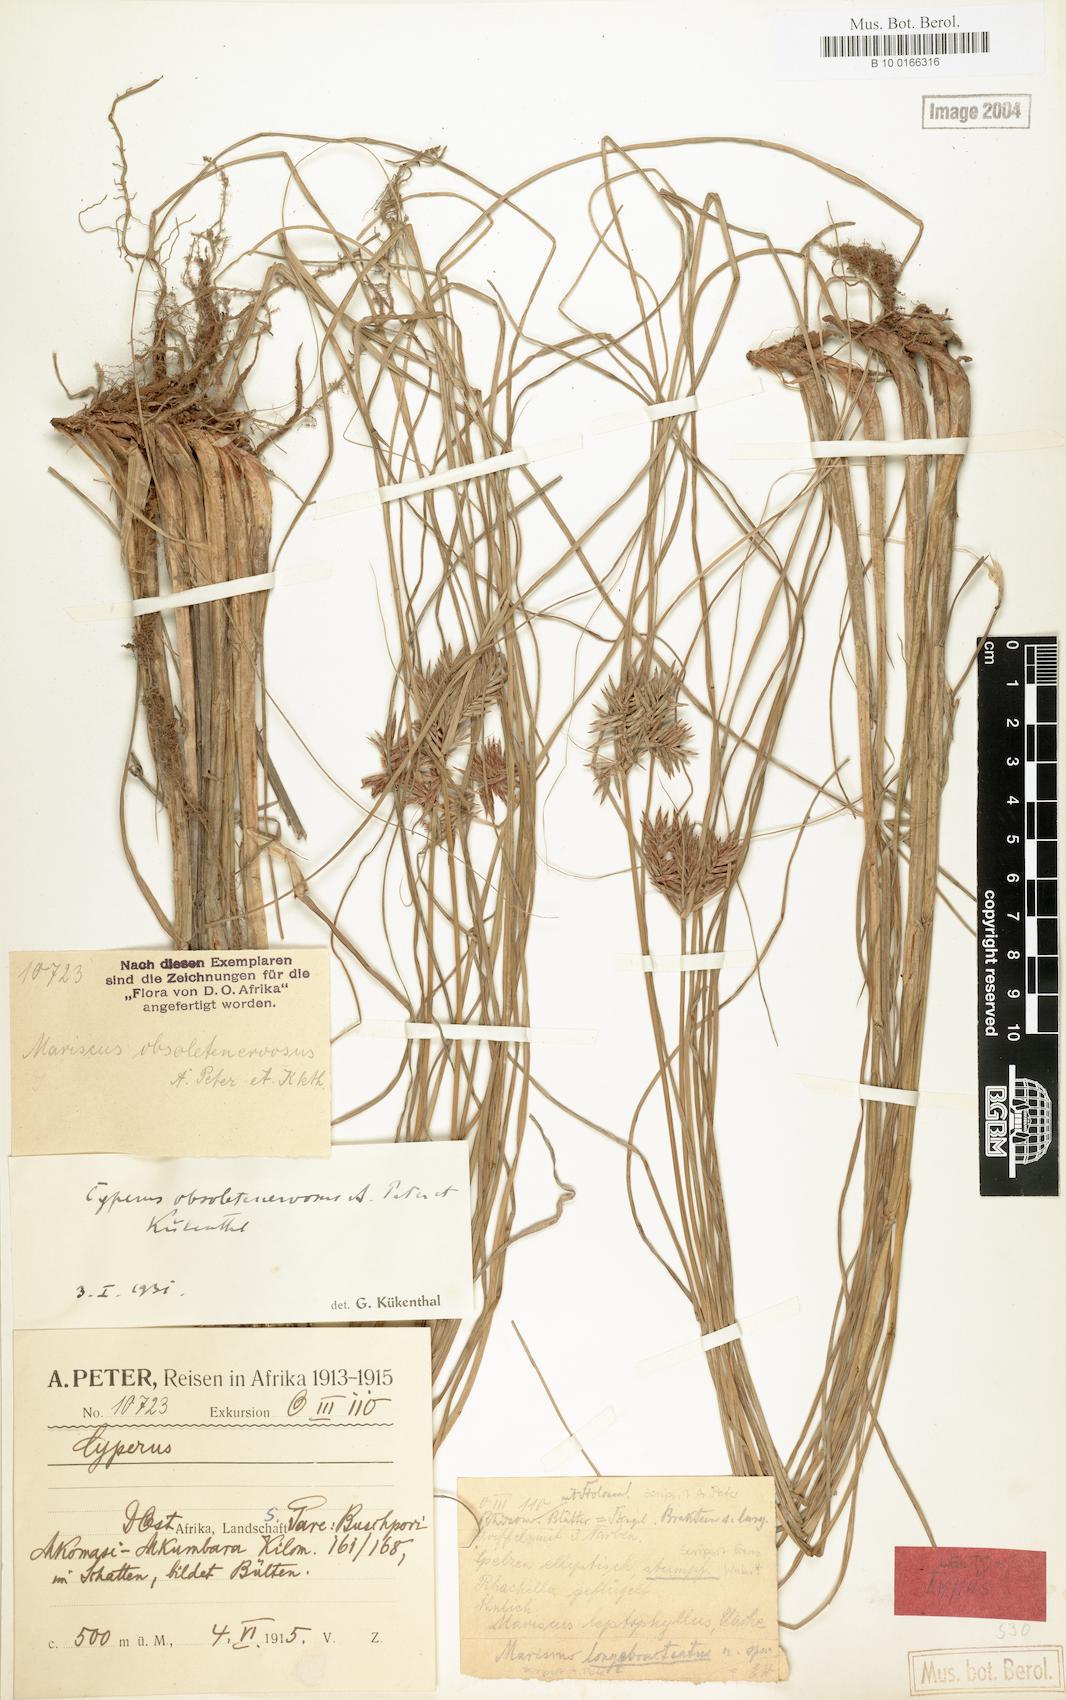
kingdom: Plantae
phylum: Tracheophyta
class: Liliopsida
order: Poales
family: Cyperaceae
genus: Cyperus
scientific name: Cyperus vestitus
